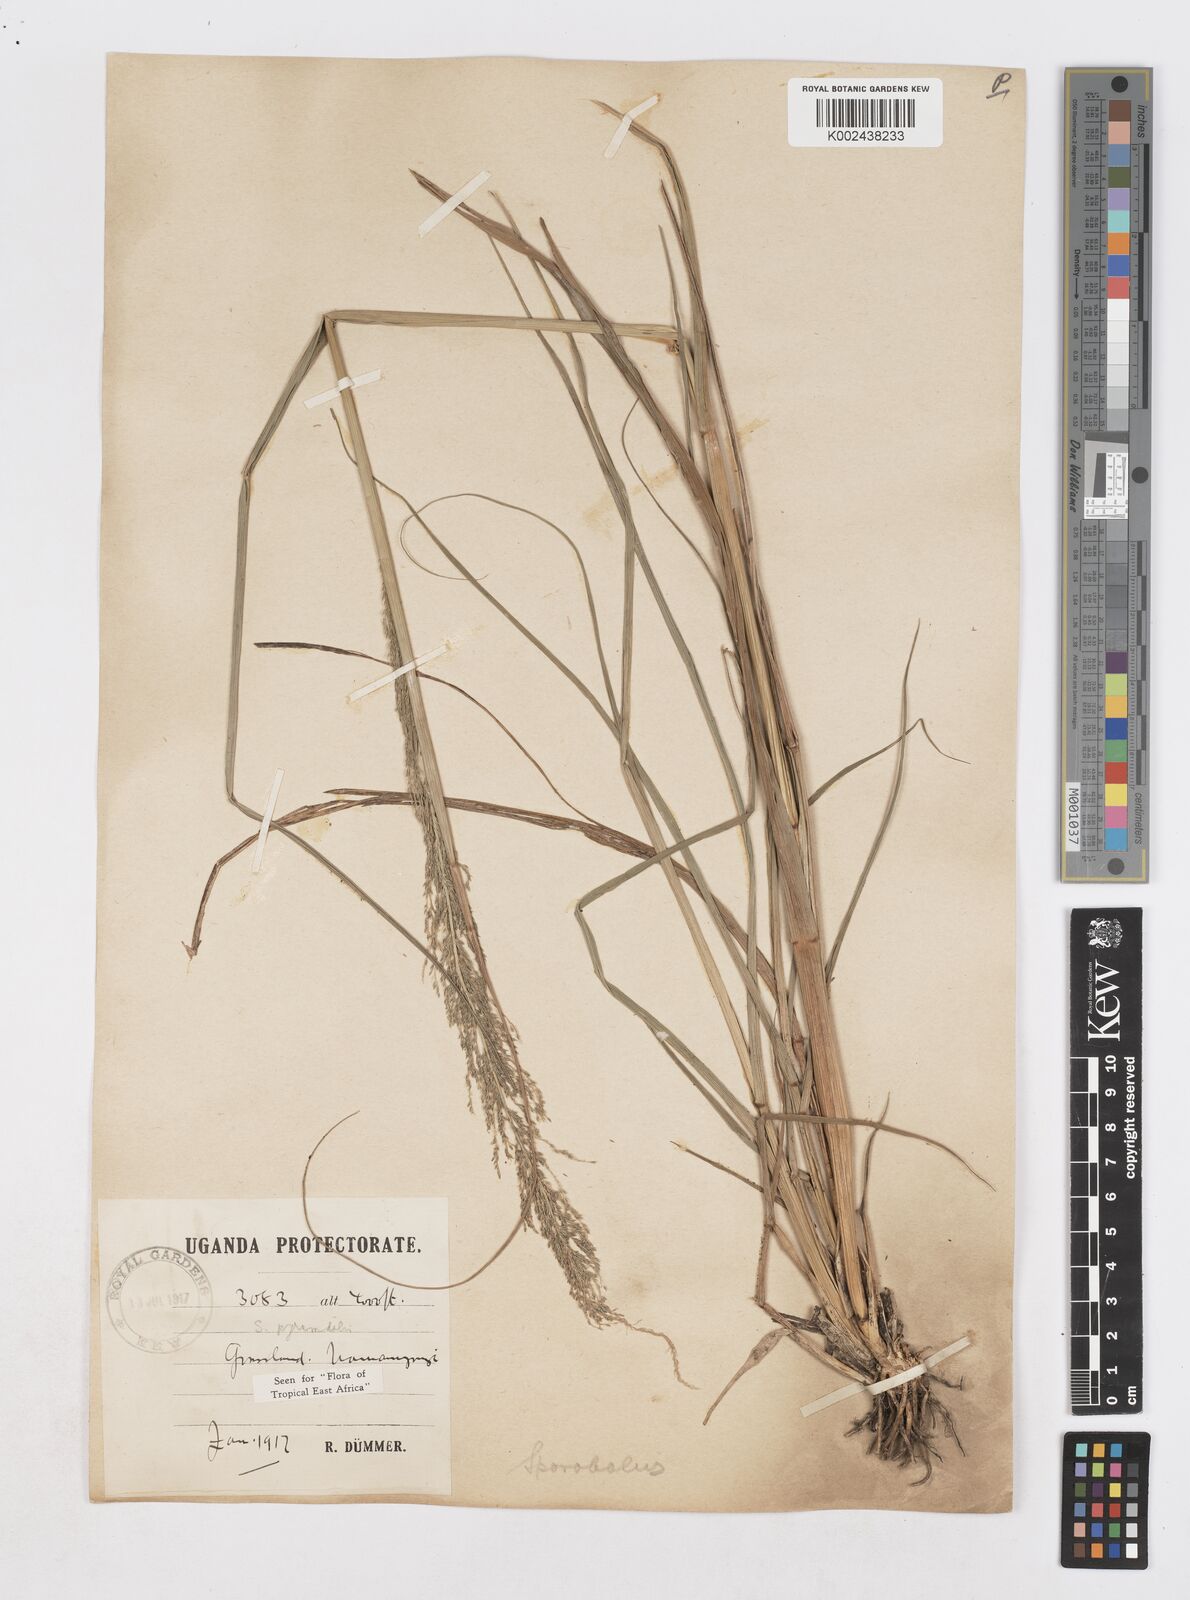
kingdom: Plantae
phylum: Tracheophyta
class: Liliopsida
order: Poales
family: Poaceae
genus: Sporobolus
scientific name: Sporobolus pyramidalis
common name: West indian dropseed
